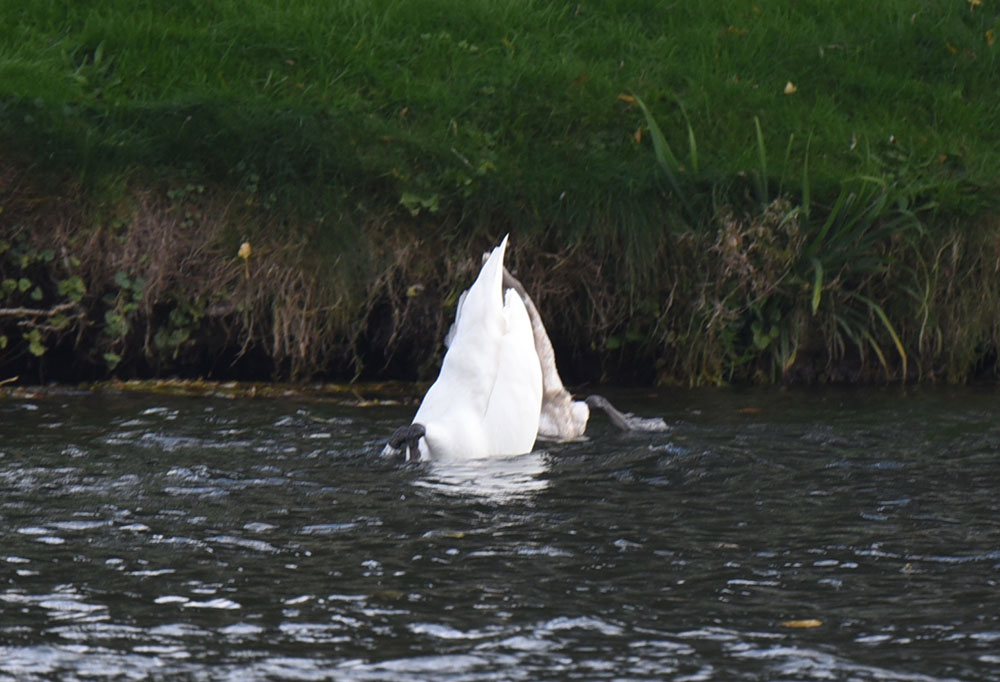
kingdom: Animalia
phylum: Chordata
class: Aves
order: Anseriformes
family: Anatidae
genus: Cygnus
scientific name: Cygnus olor
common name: Mute swan
